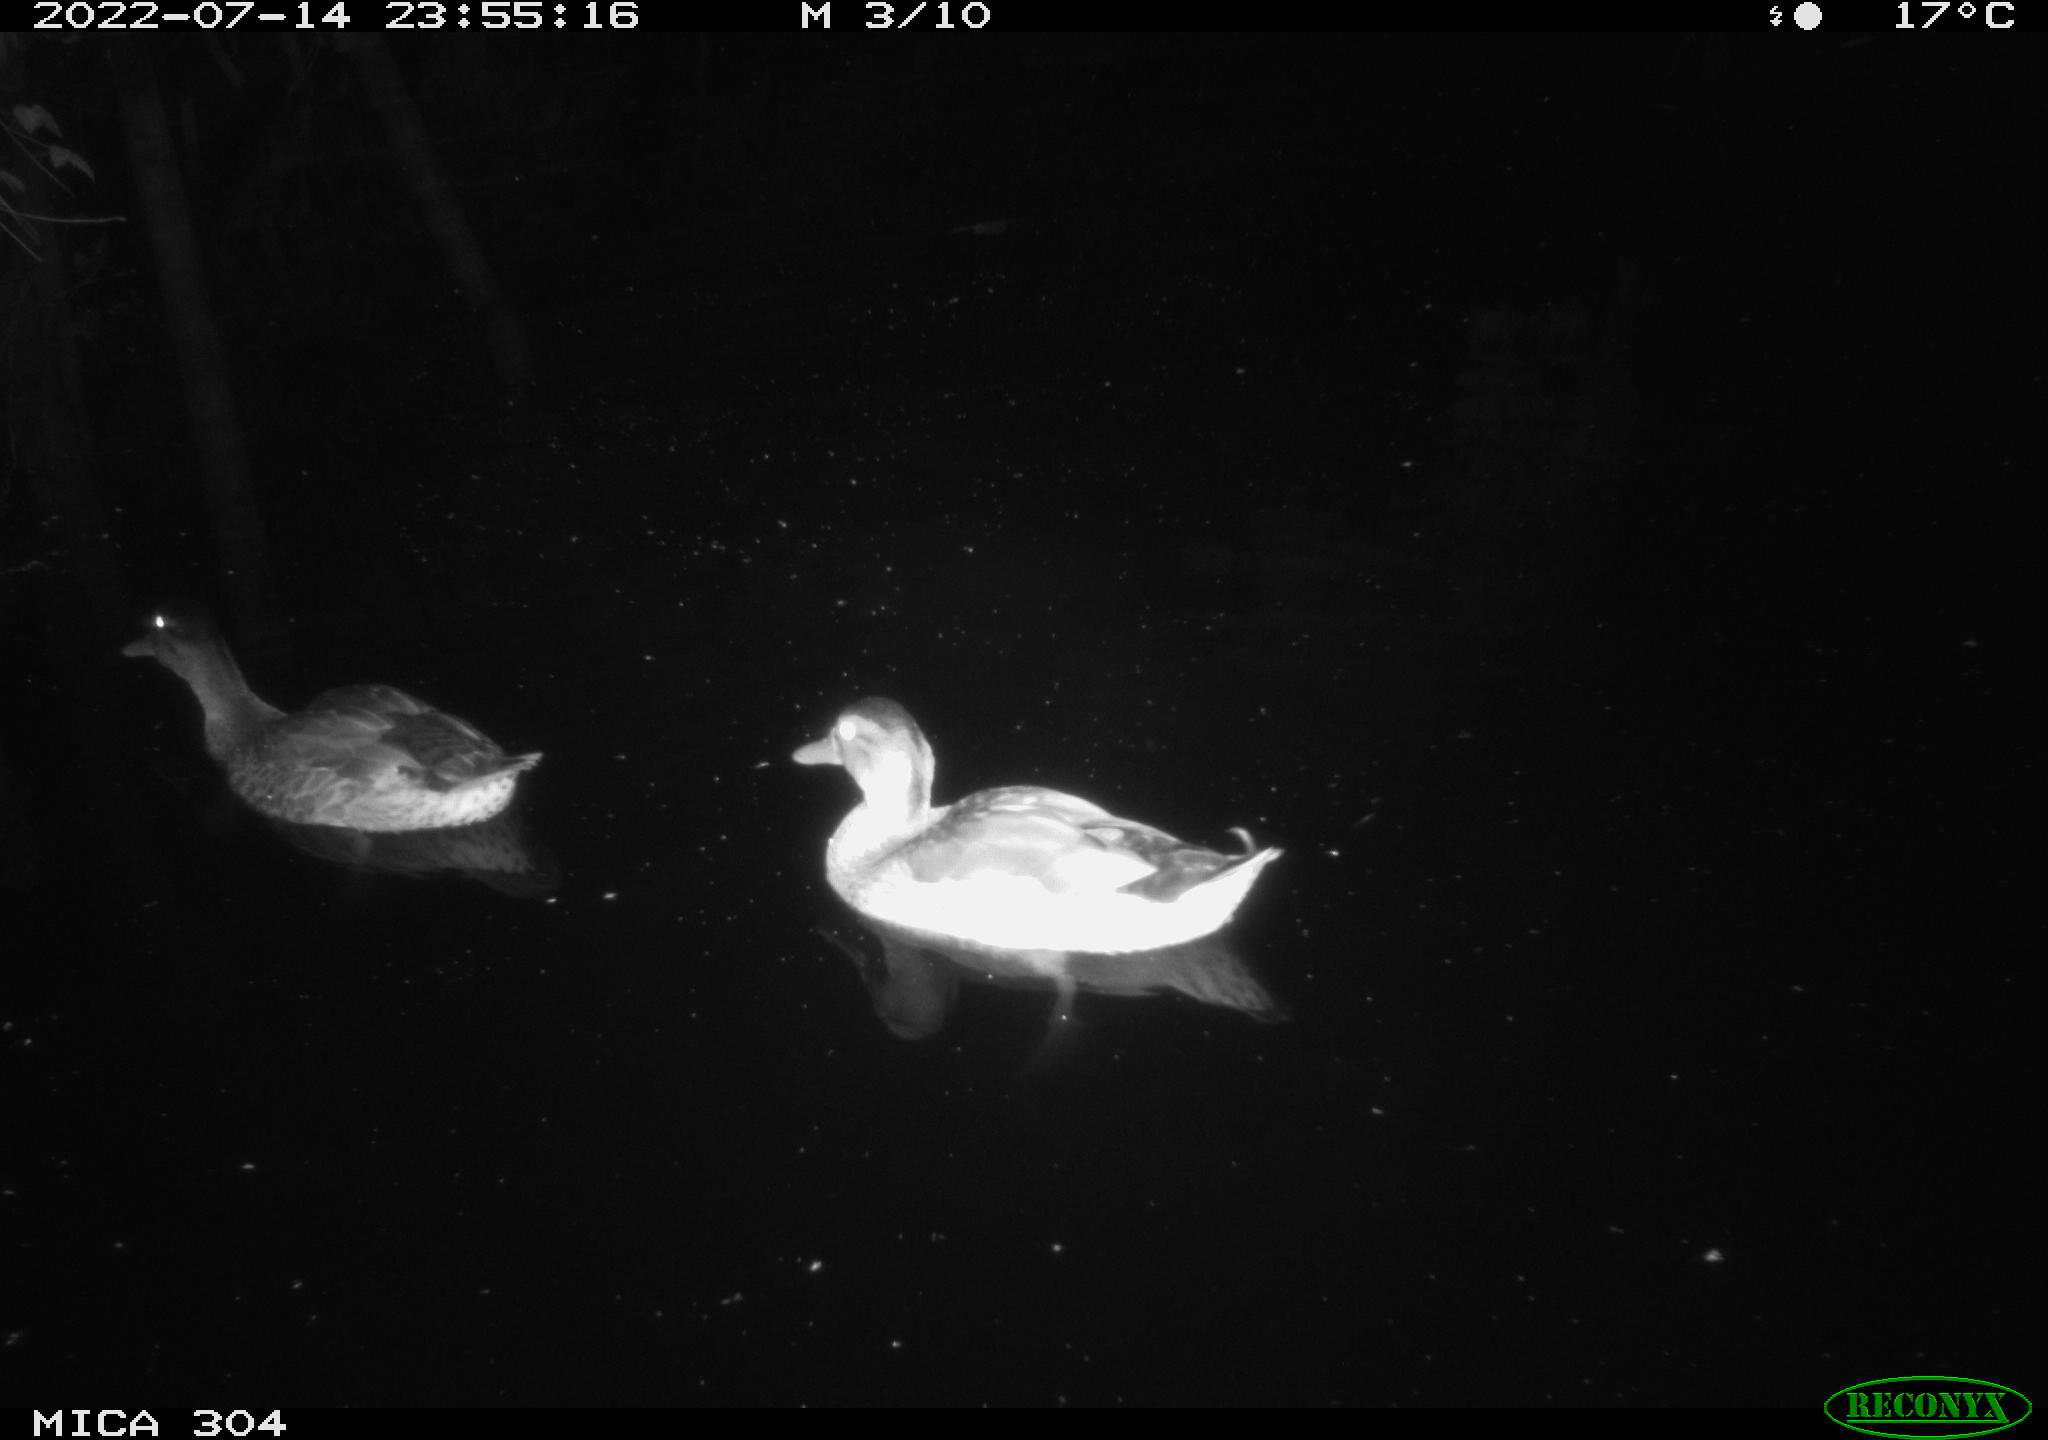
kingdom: Animalia
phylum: Chordata
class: Aves
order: Anseriformes
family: Anatidae
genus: Mareca
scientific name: Mareca strepera
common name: Gadwall
